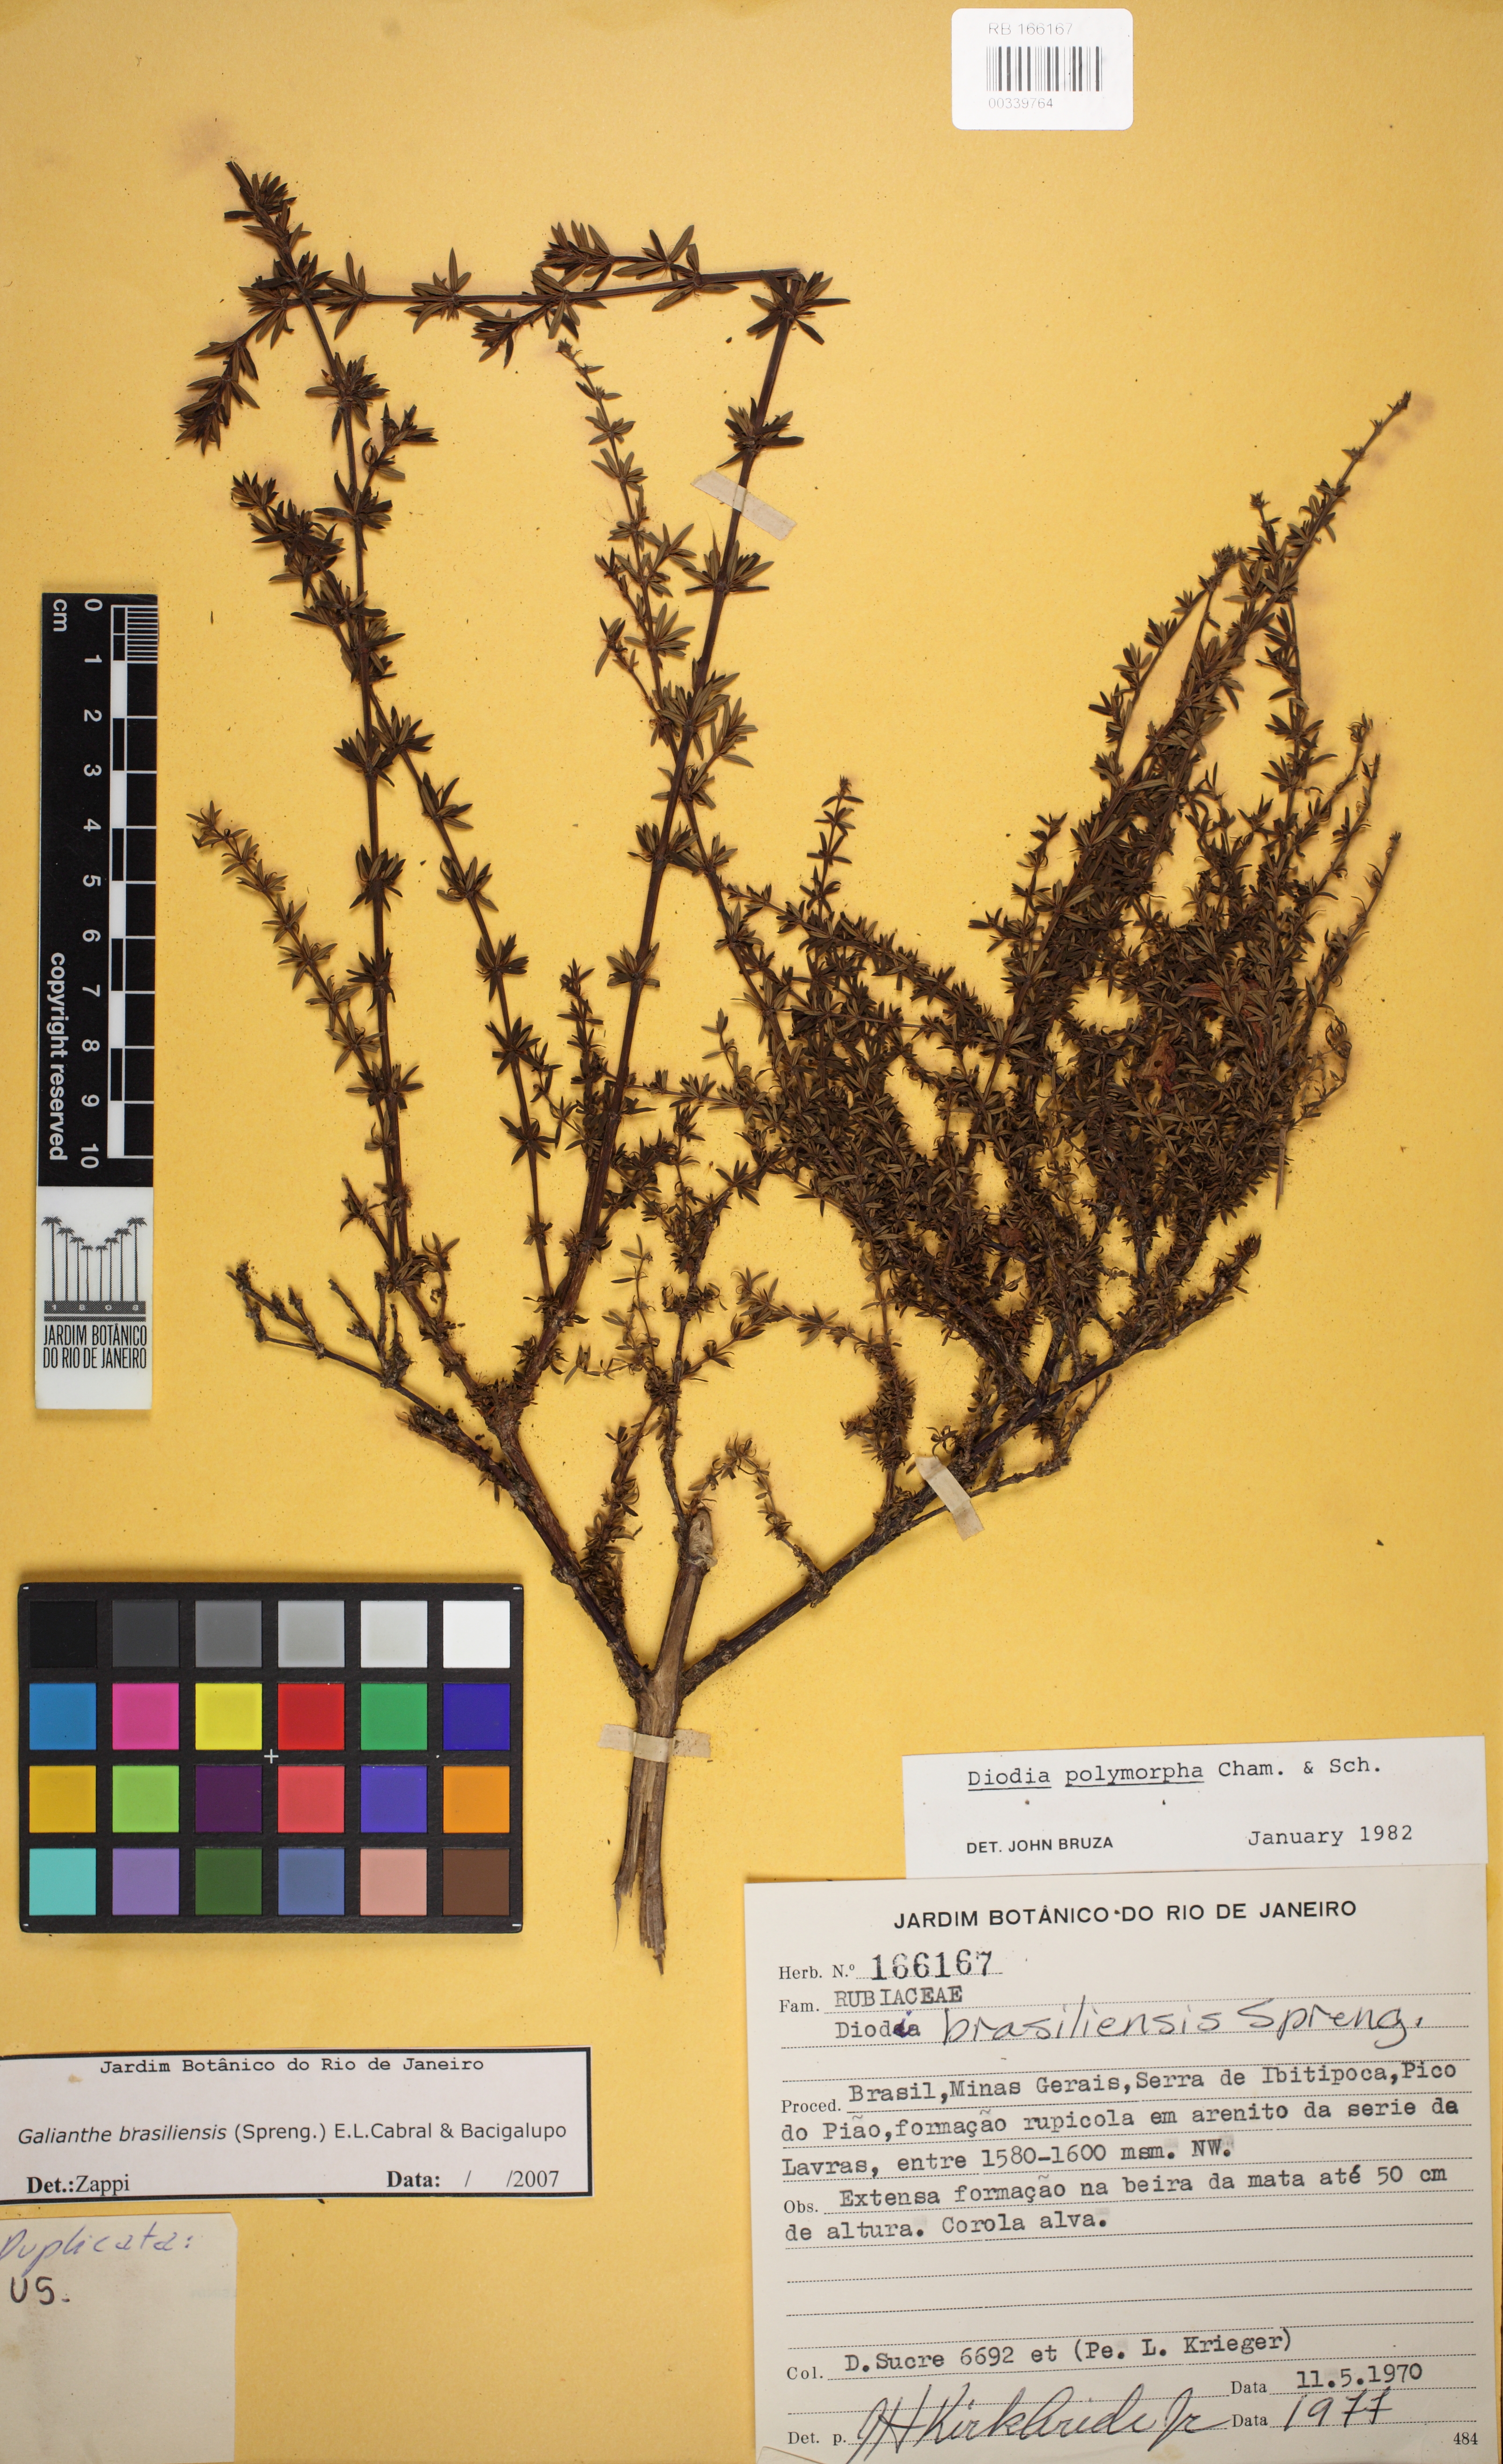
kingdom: Plantae
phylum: Tracheophyta
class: Magnoliopsida
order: Gentianales
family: Rubiaceae
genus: Galianthe
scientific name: Galianthe brasiliensis
